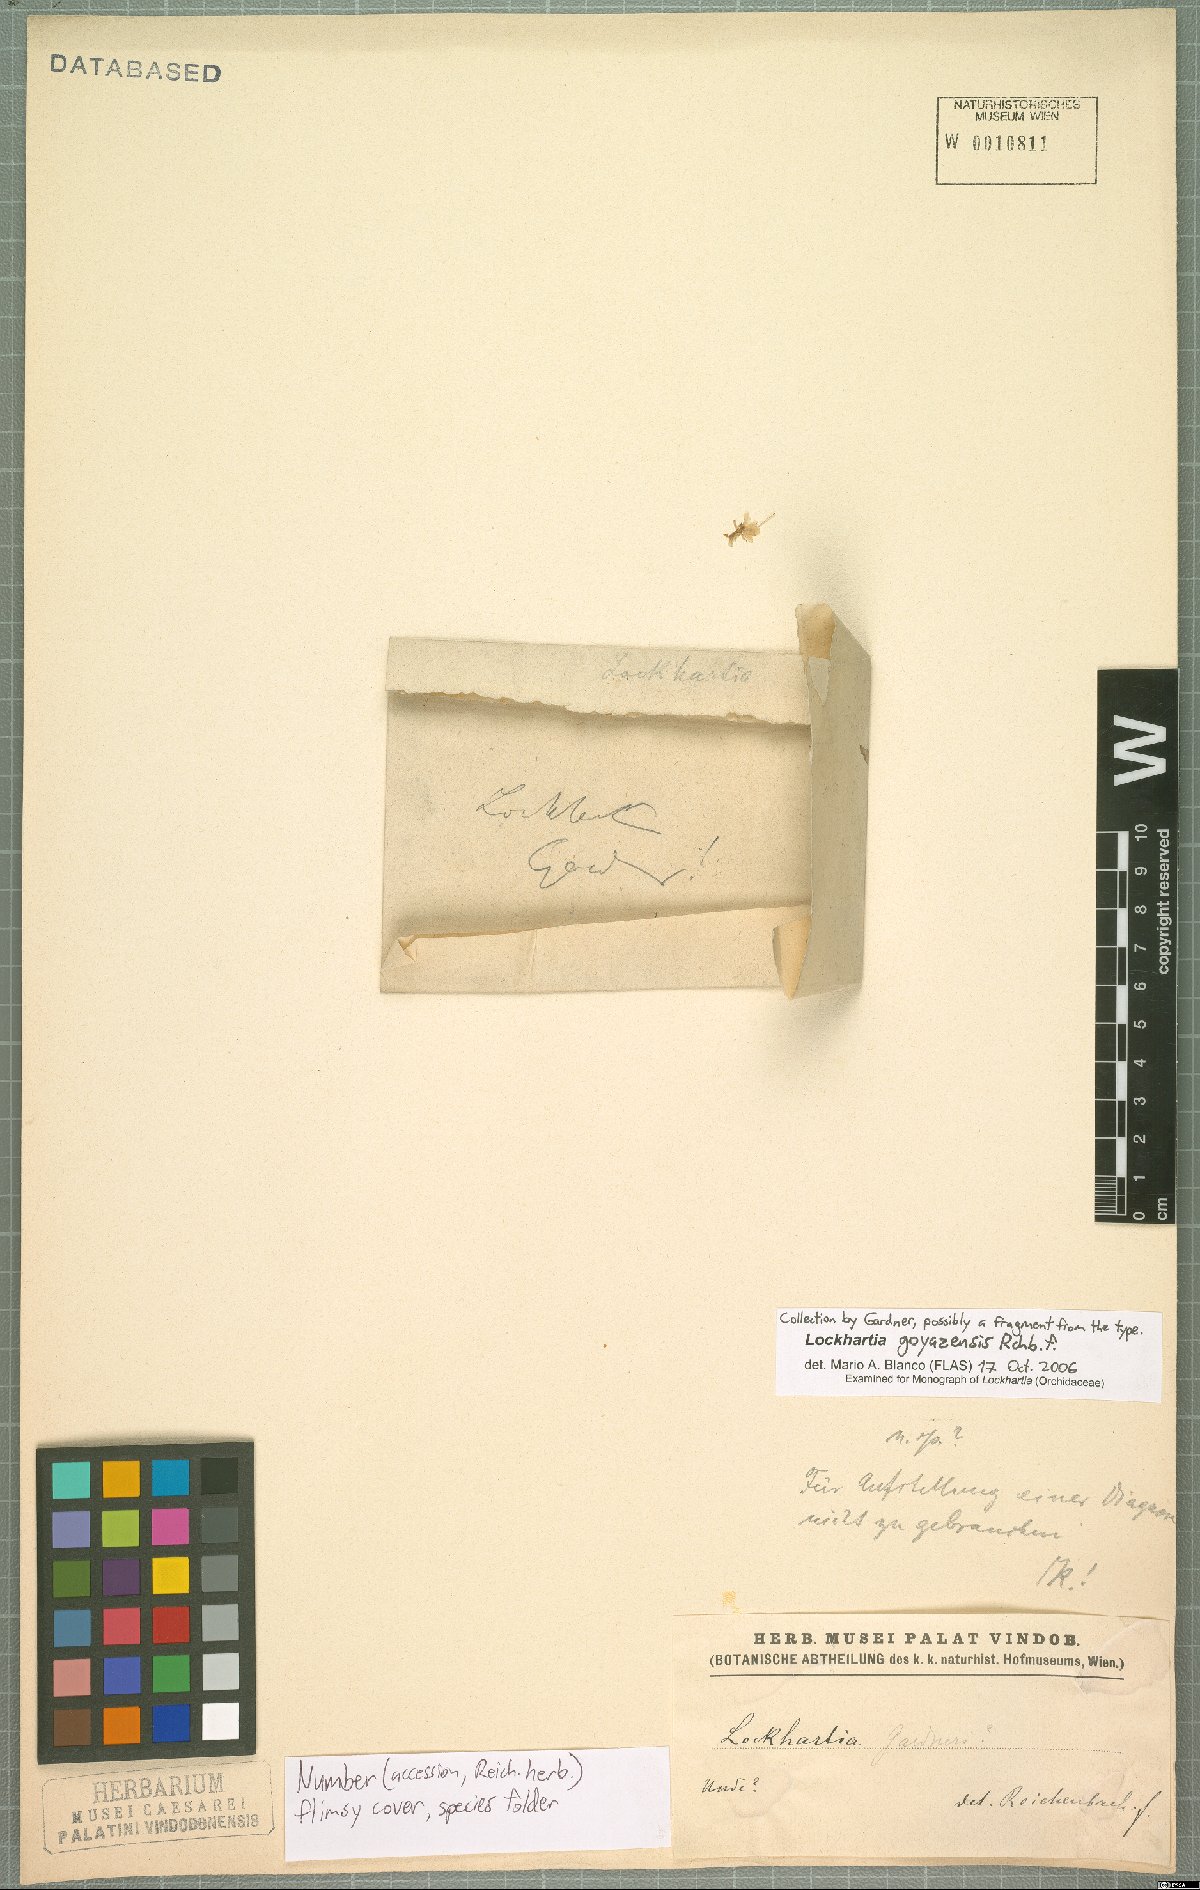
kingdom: Plantae
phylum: Tracheophyta
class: Liliopsida
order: Asparagales
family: Orchidaceae
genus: Lockhartia
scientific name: Lockhartia goyazensis
